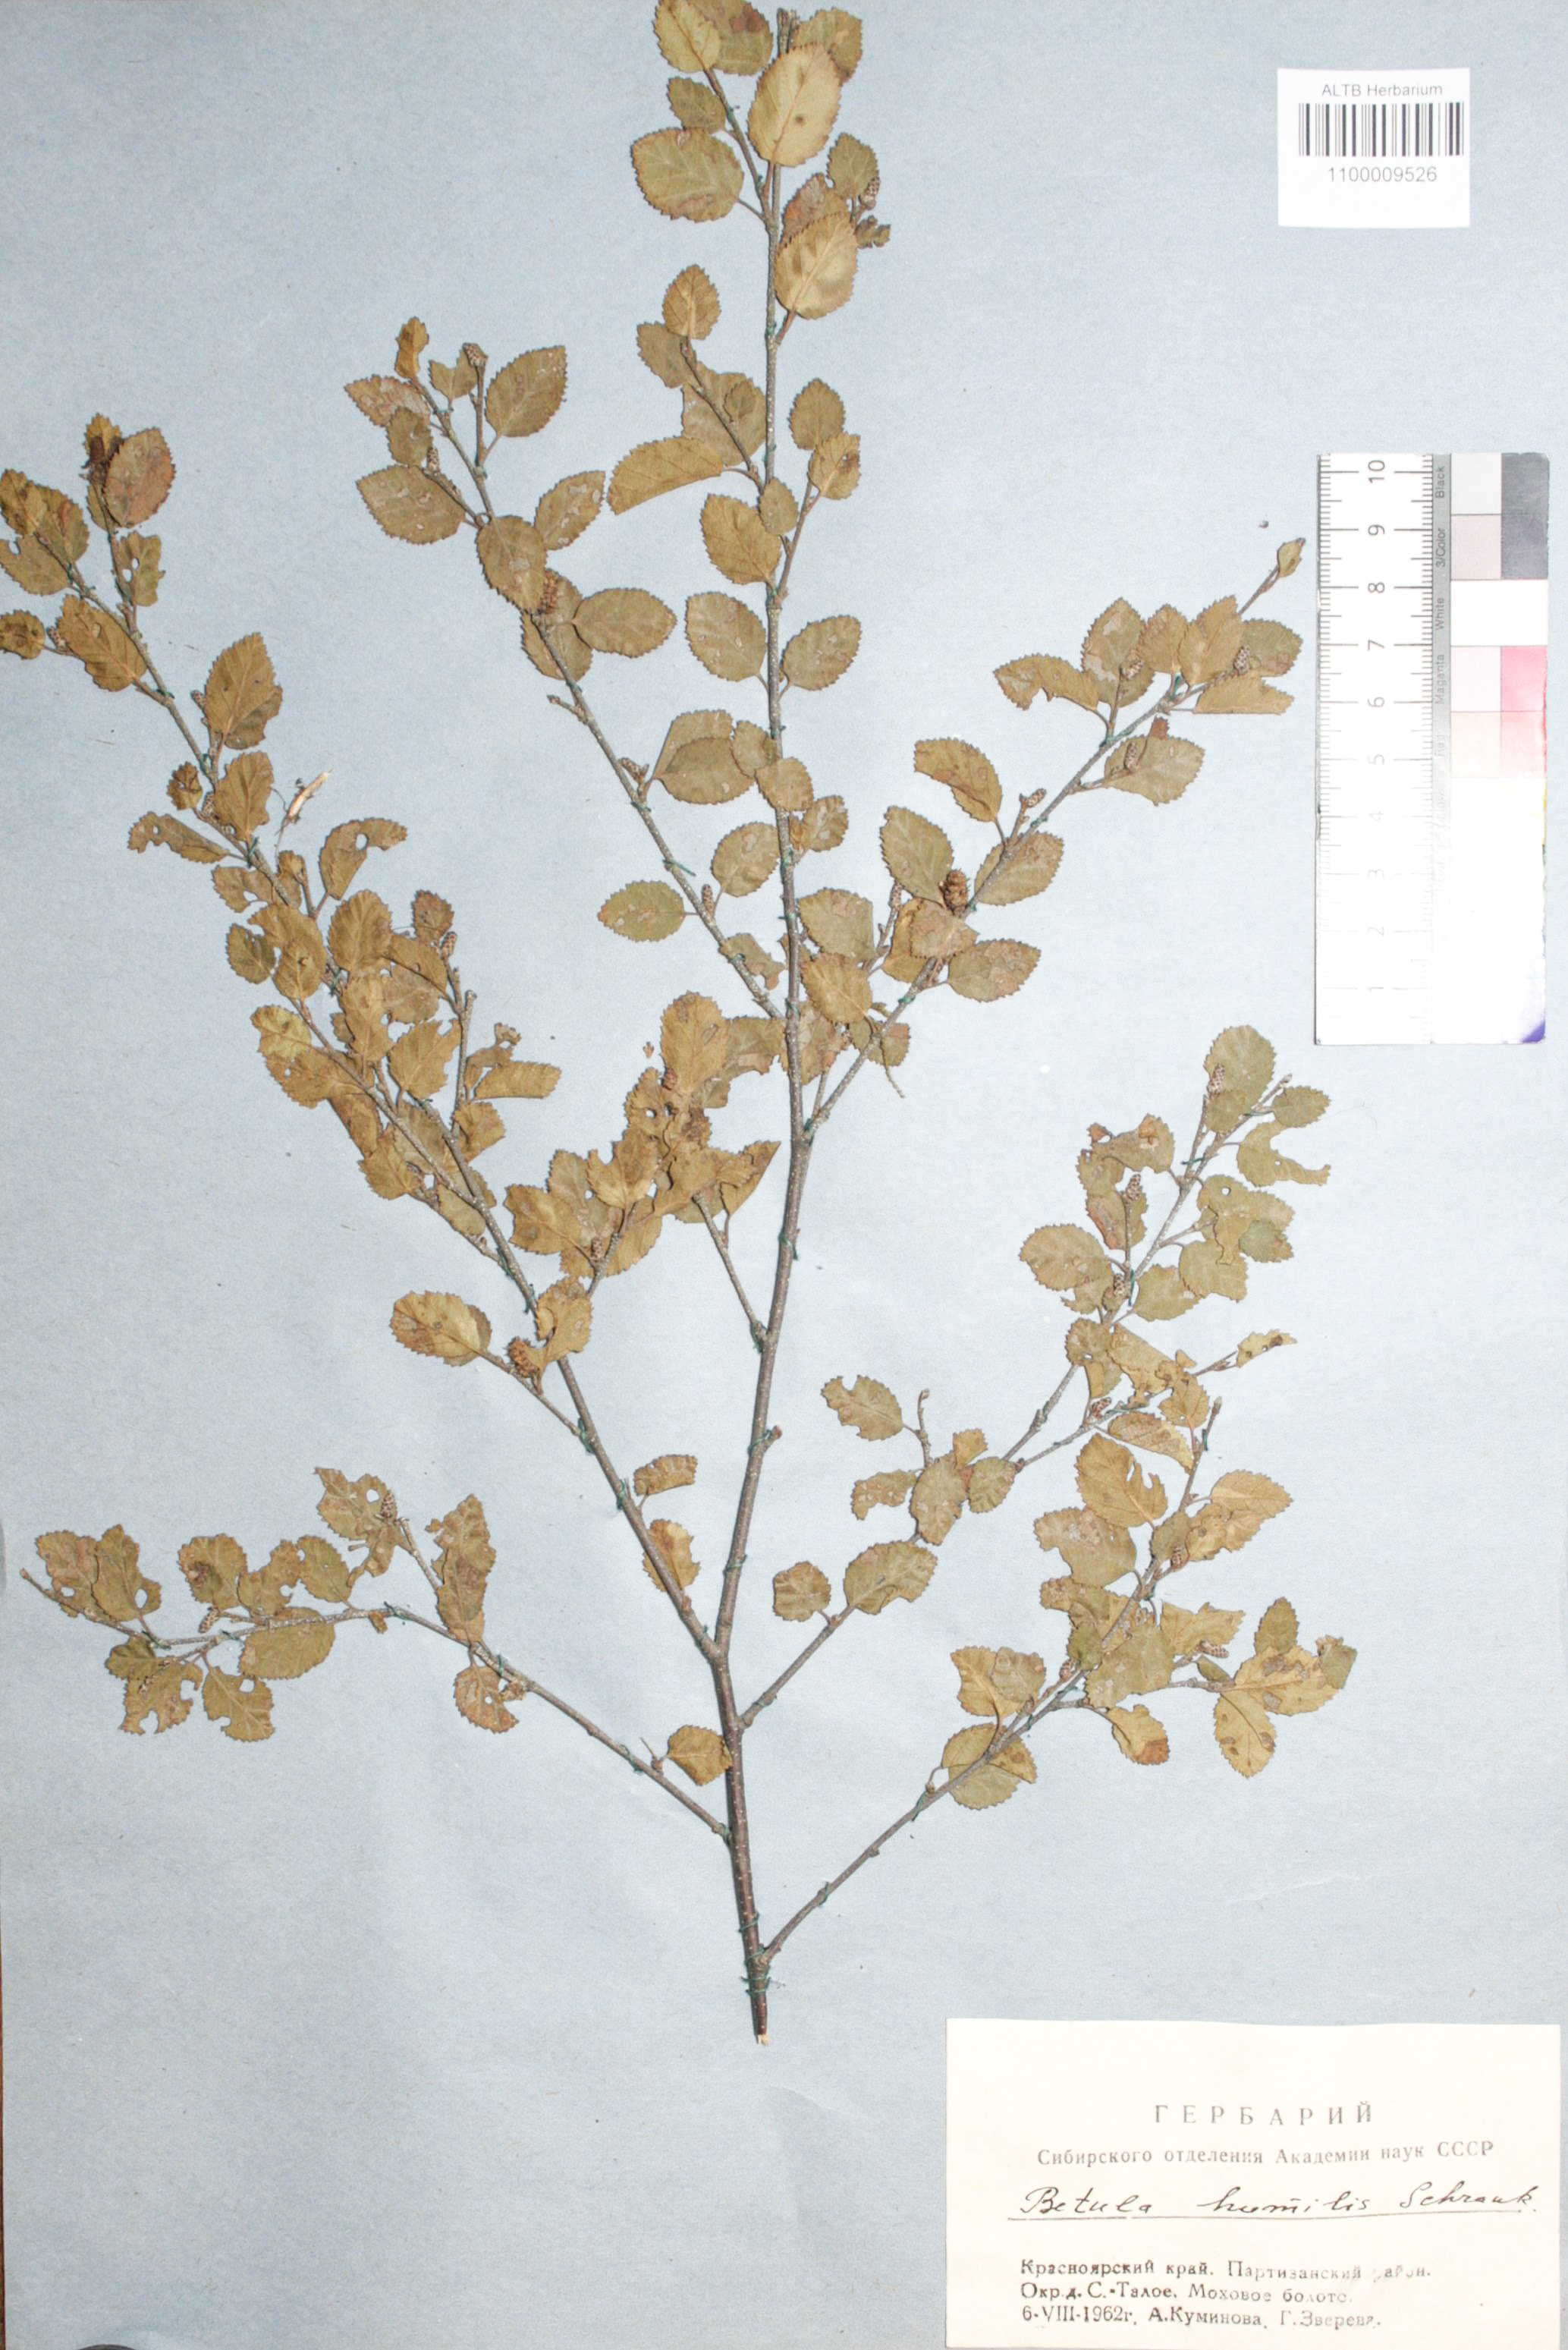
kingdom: Plantae
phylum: Tracheophyta
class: Magnoliopsida
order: Fagales
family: Betulaceae
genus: Betula
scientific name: Betula humilis
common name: Shrubby birch
